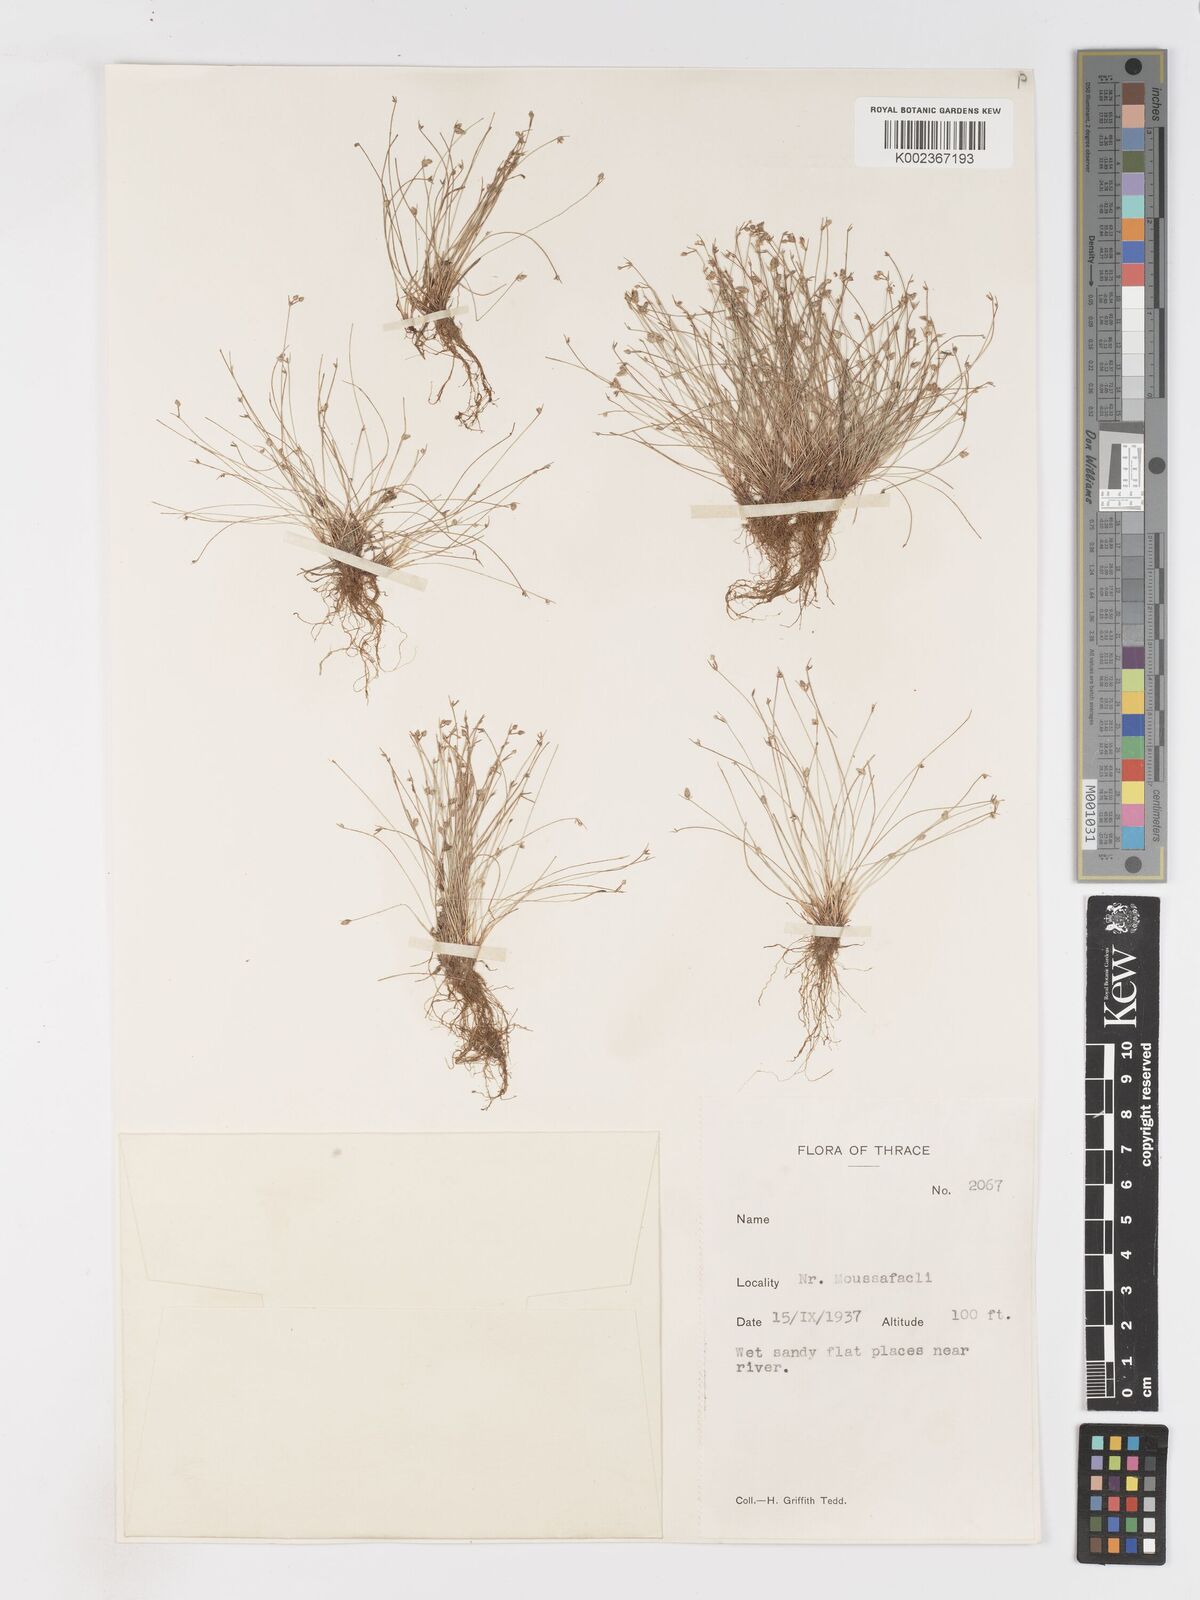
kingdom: Plantae
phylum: Tracheophyta
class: Liliopsida
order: Poales
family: Cyperaceae
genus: Isolepis
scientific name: Isolepis setacea
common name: Bristle club-rush
